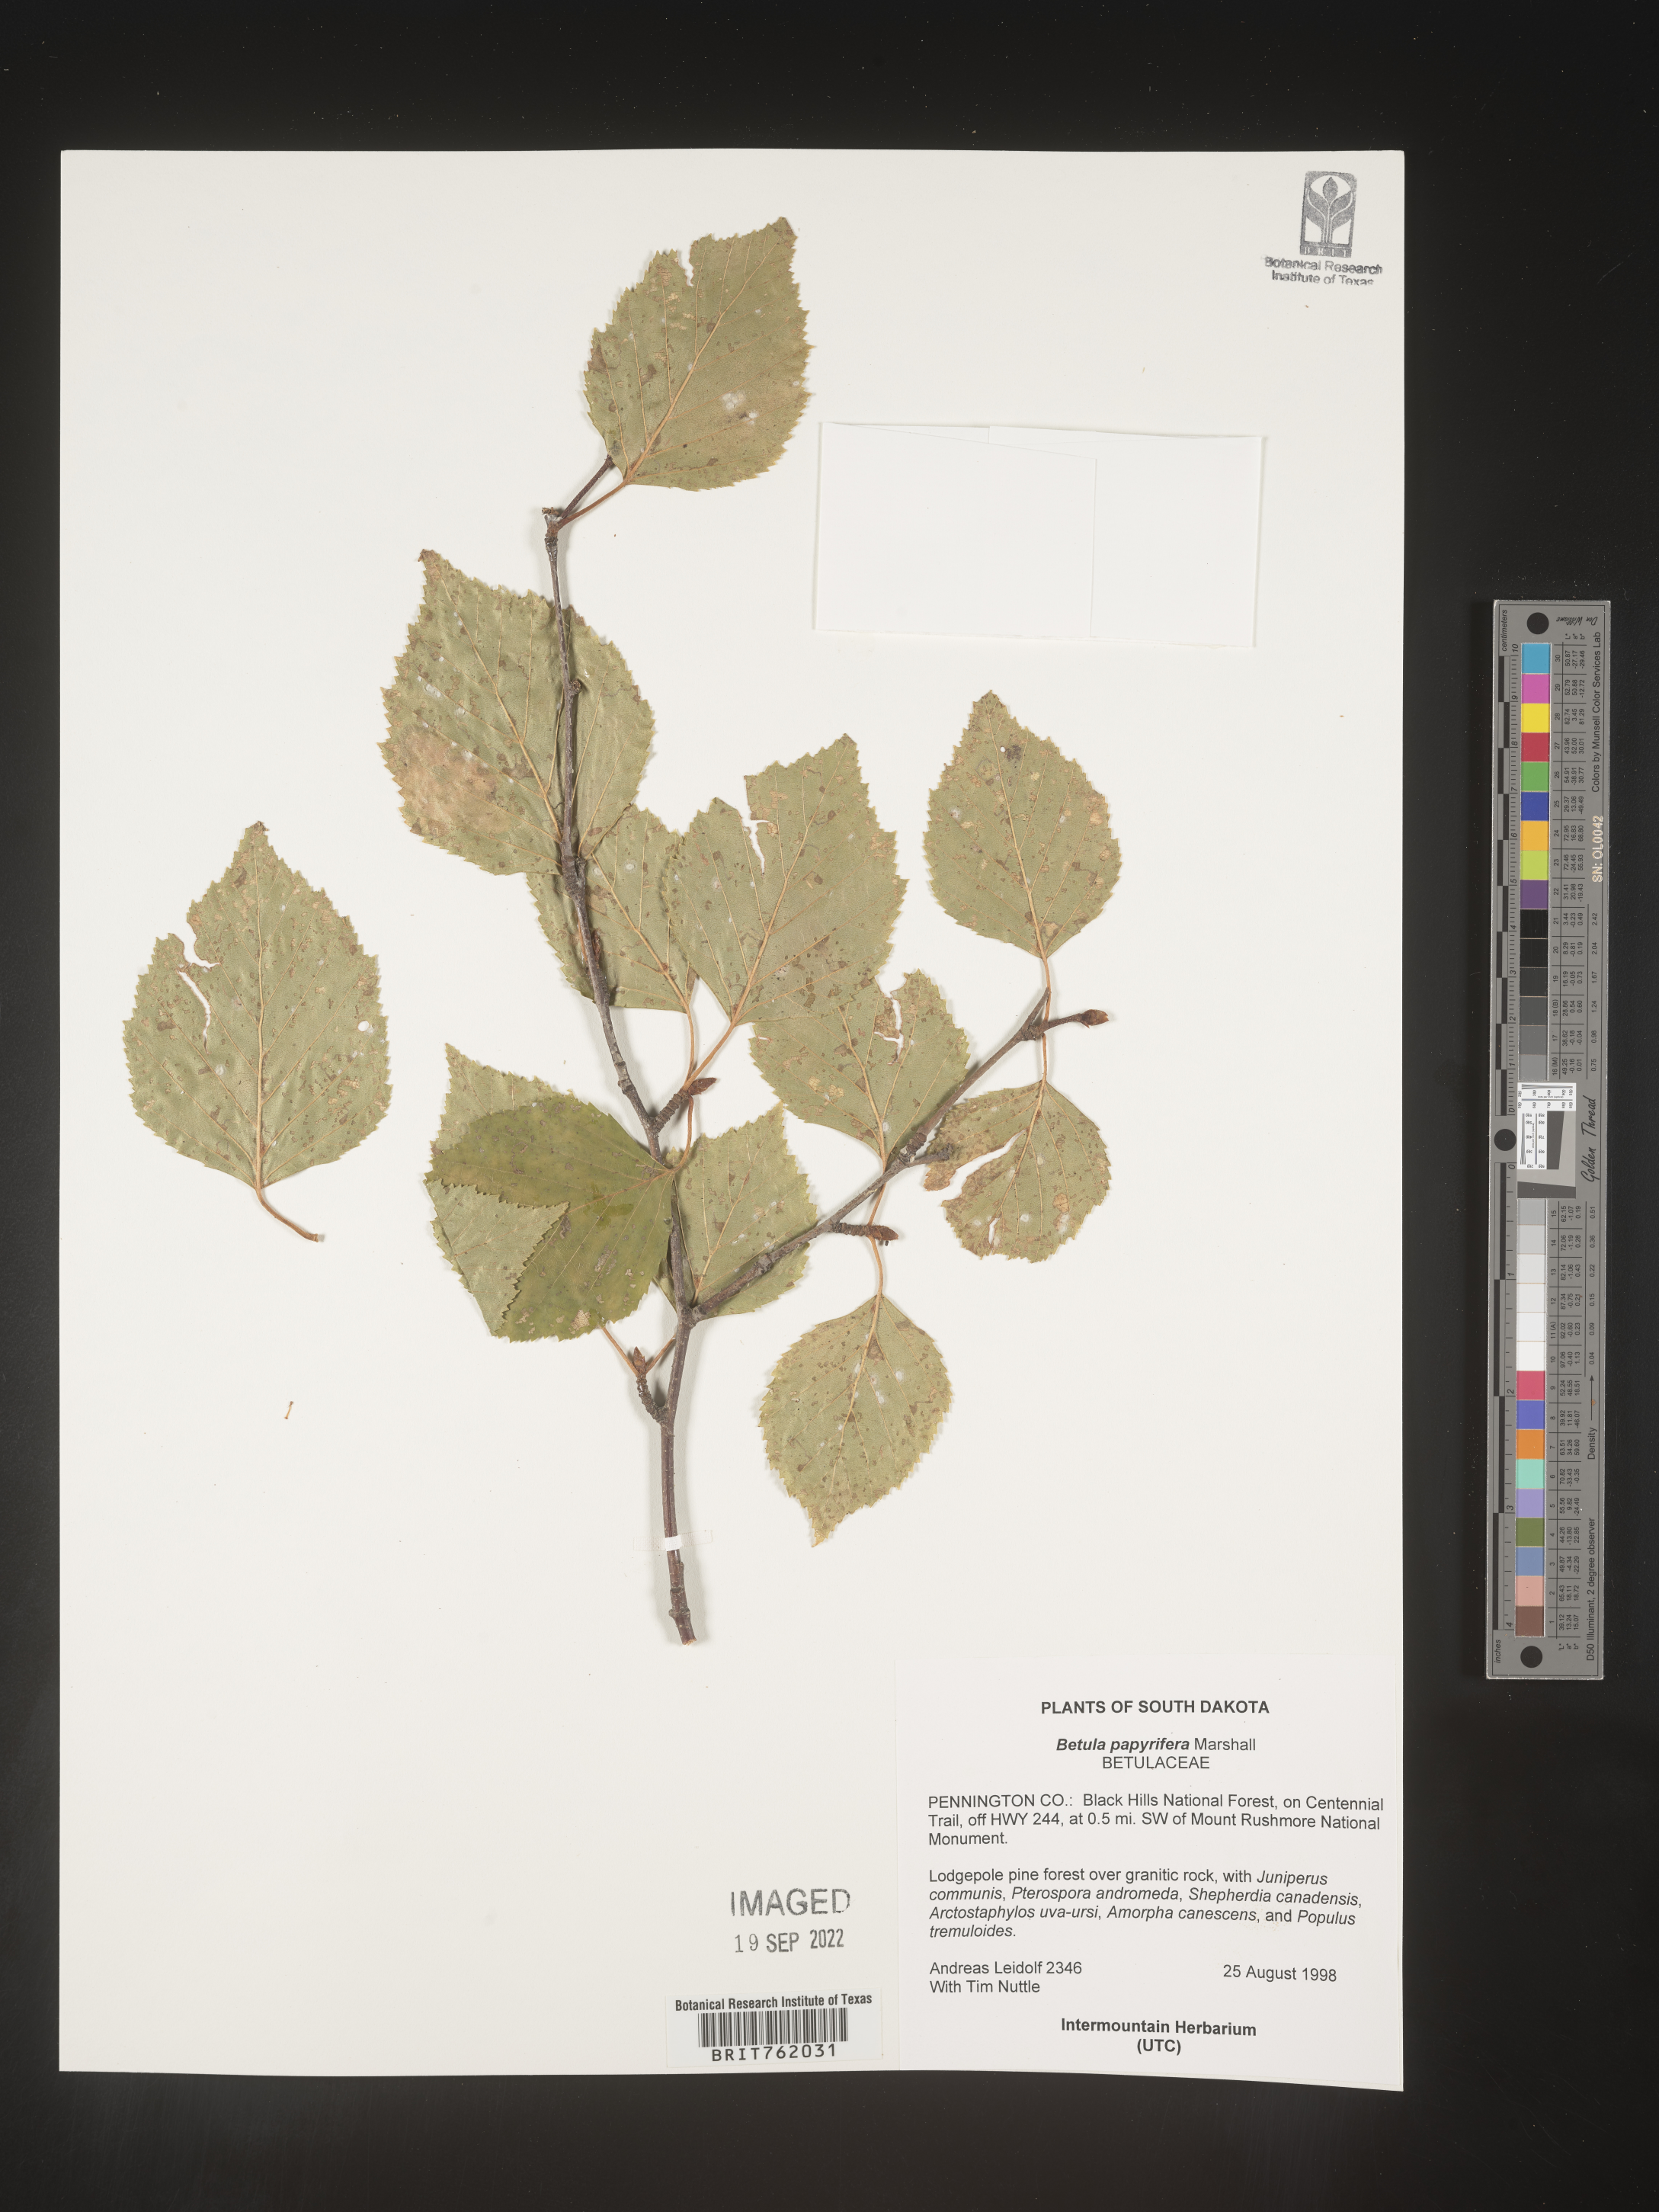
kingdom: Plantae
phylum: Tracheophyta
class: Magnoliopsida
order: Fagales
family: Betulaceae
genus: Betula
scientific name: Betula papyrifera
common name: Paper birch
